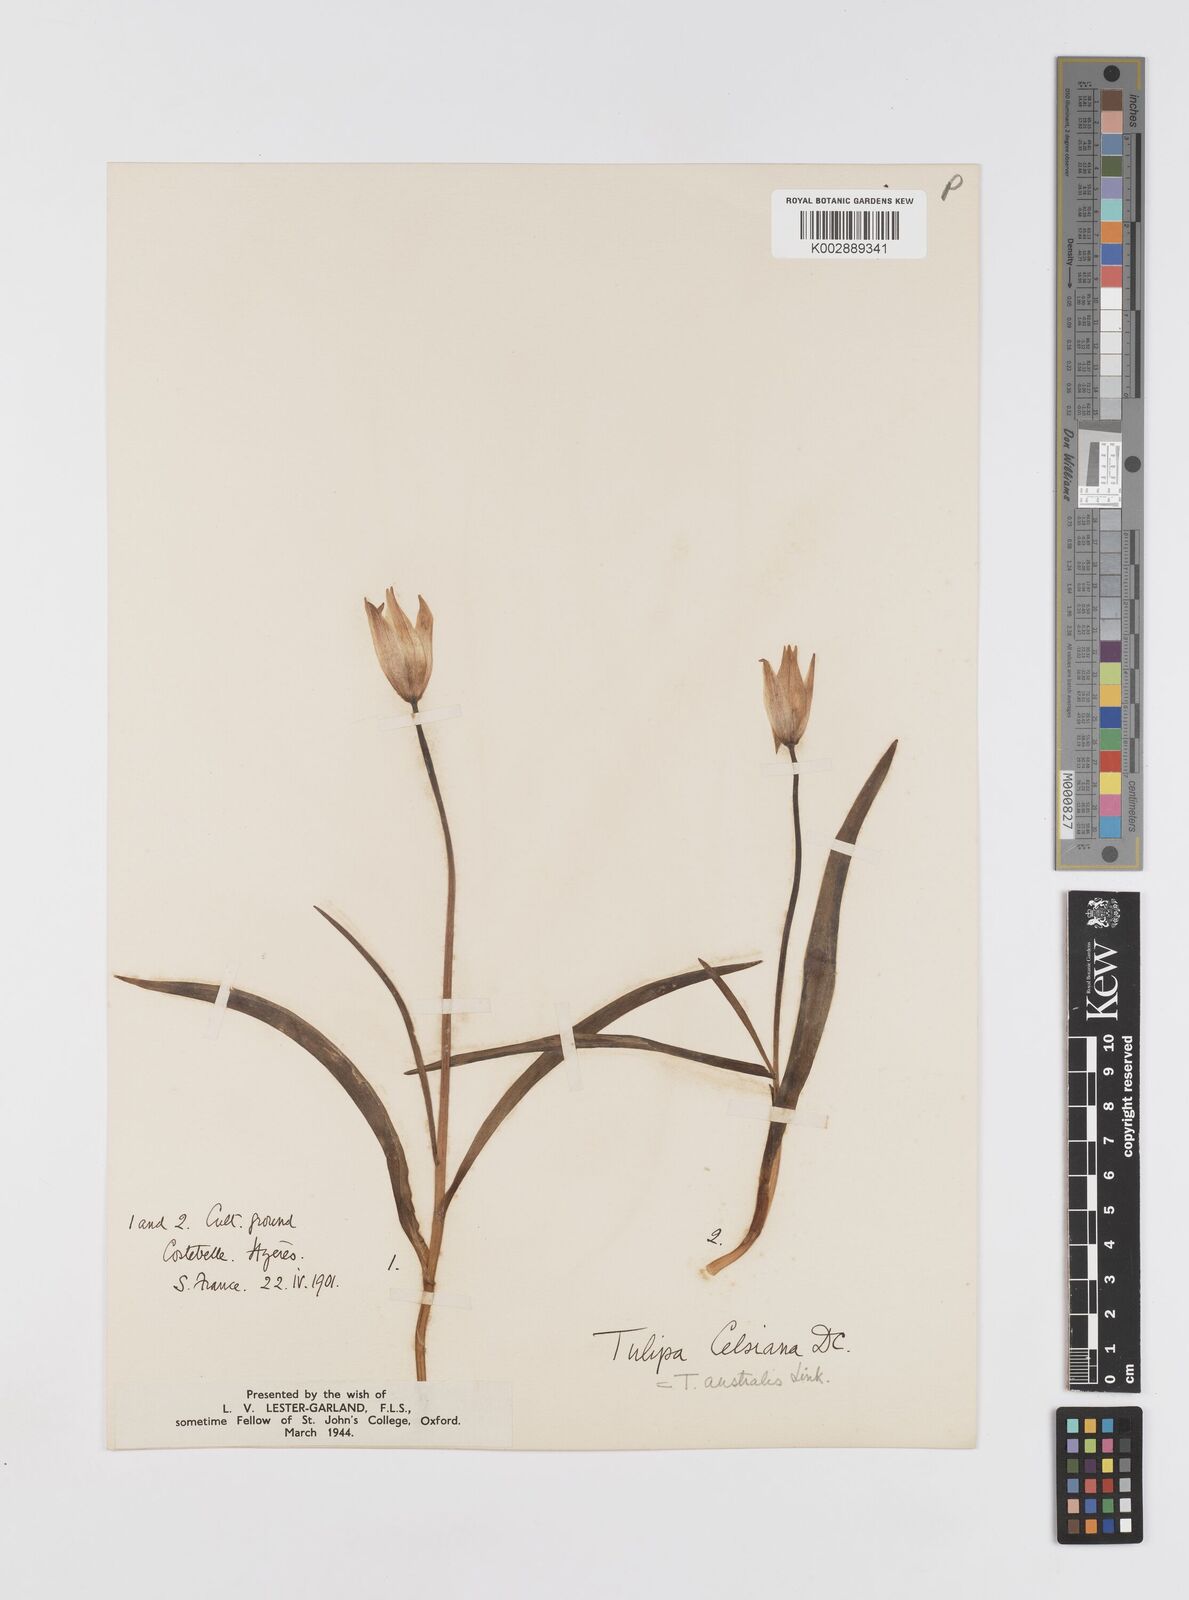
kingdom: Plantae
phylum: Tracheophyta
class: Liliopsida
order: Liliales
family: Liliaceae
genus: Tulipa
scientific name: Tulipa sylvestris
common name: Wild tulip
